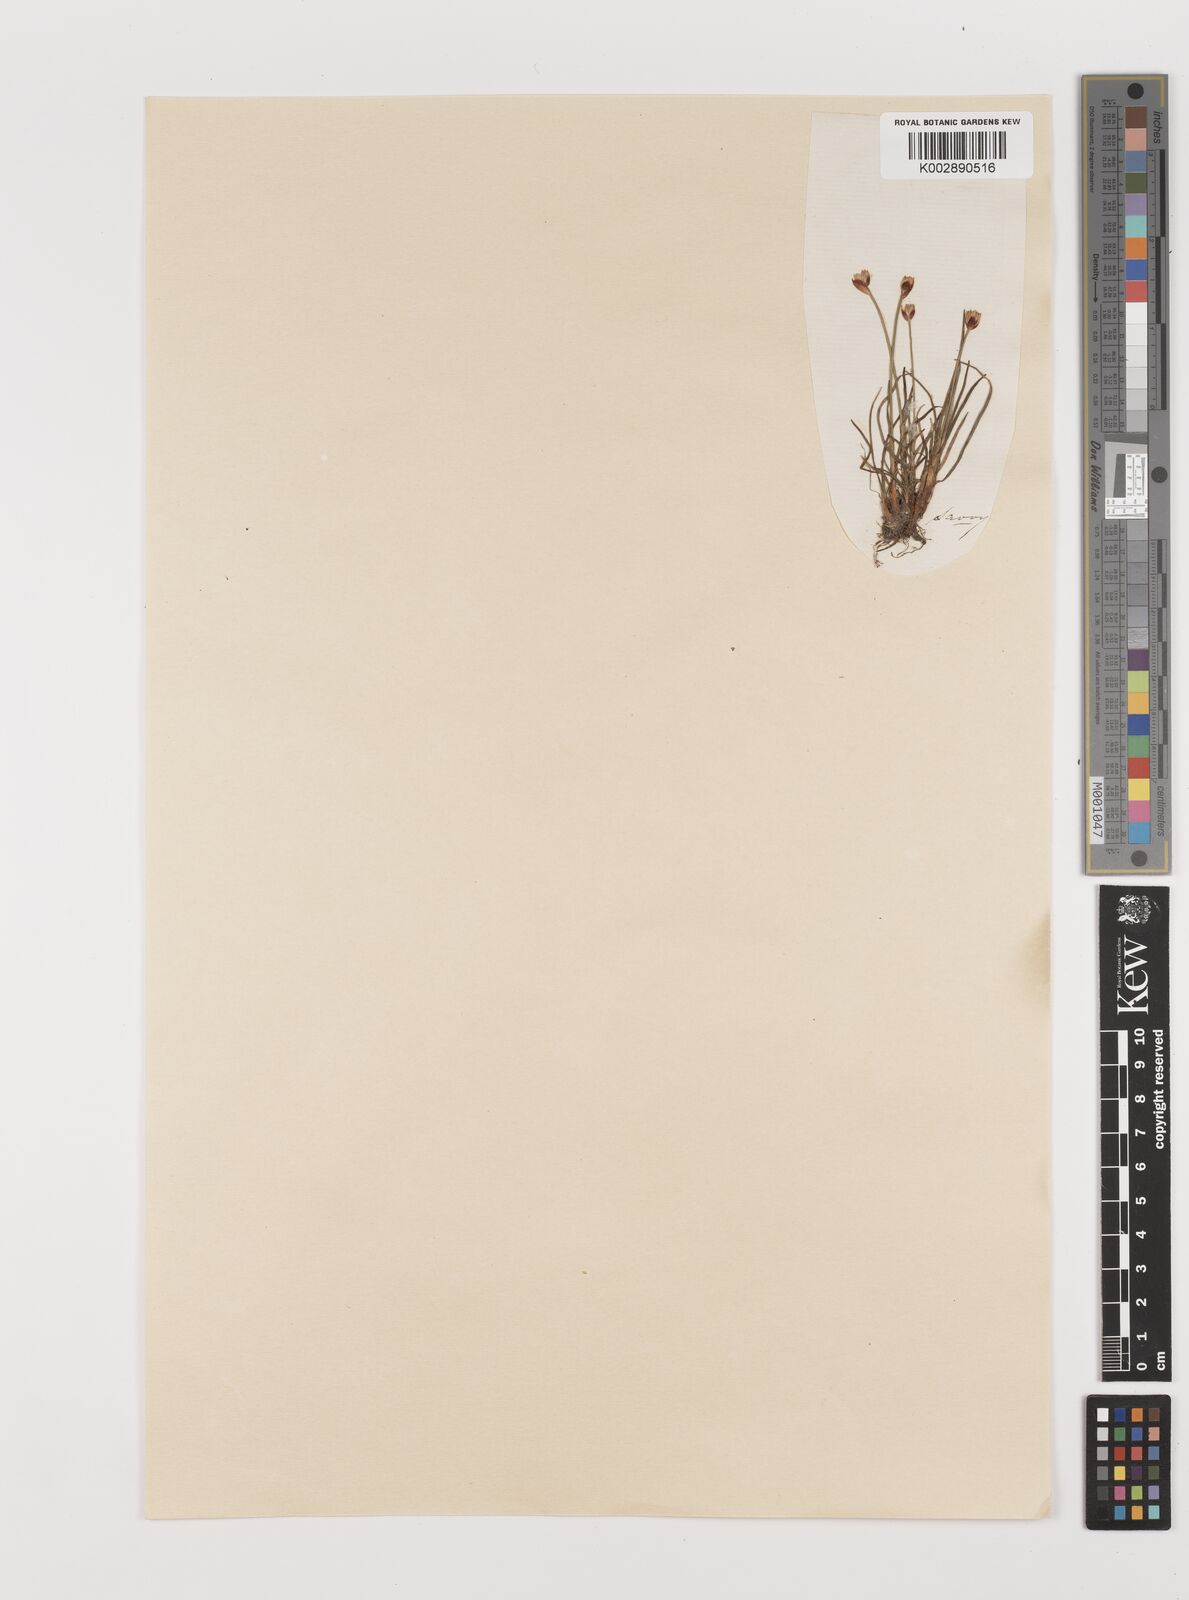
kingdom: Plantae
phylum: Tracheophyta
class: Liliopsida
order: Poales
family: Juncaceae
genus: Juncus
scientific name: Juncus triglumis
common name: Three-flowered rush
